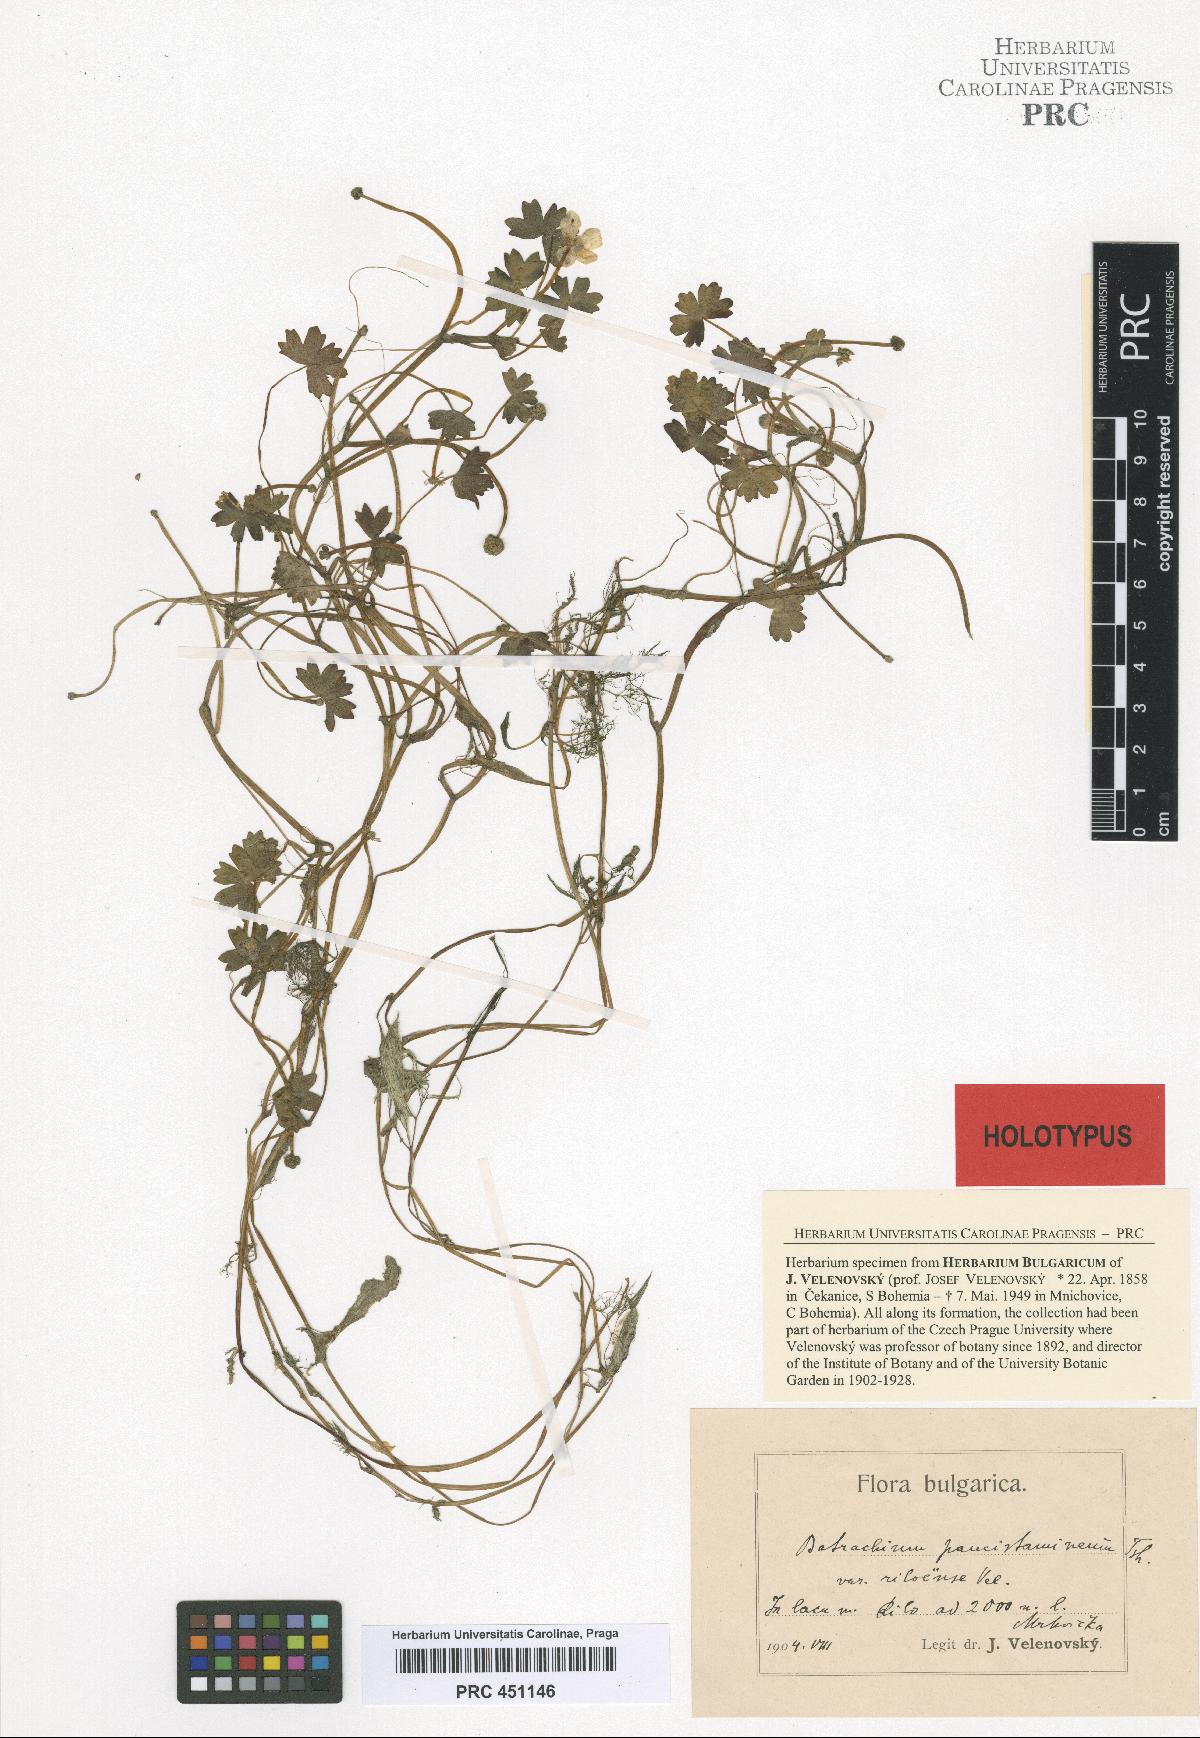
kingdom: Plantae
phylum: Tracheophyta
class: Magnoliopsida
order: Ranunculales
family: Ranunculaceae
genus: Ranunculus
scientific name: Ranunculus trichophyllus
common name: Thread-leaved water-crowfoot
